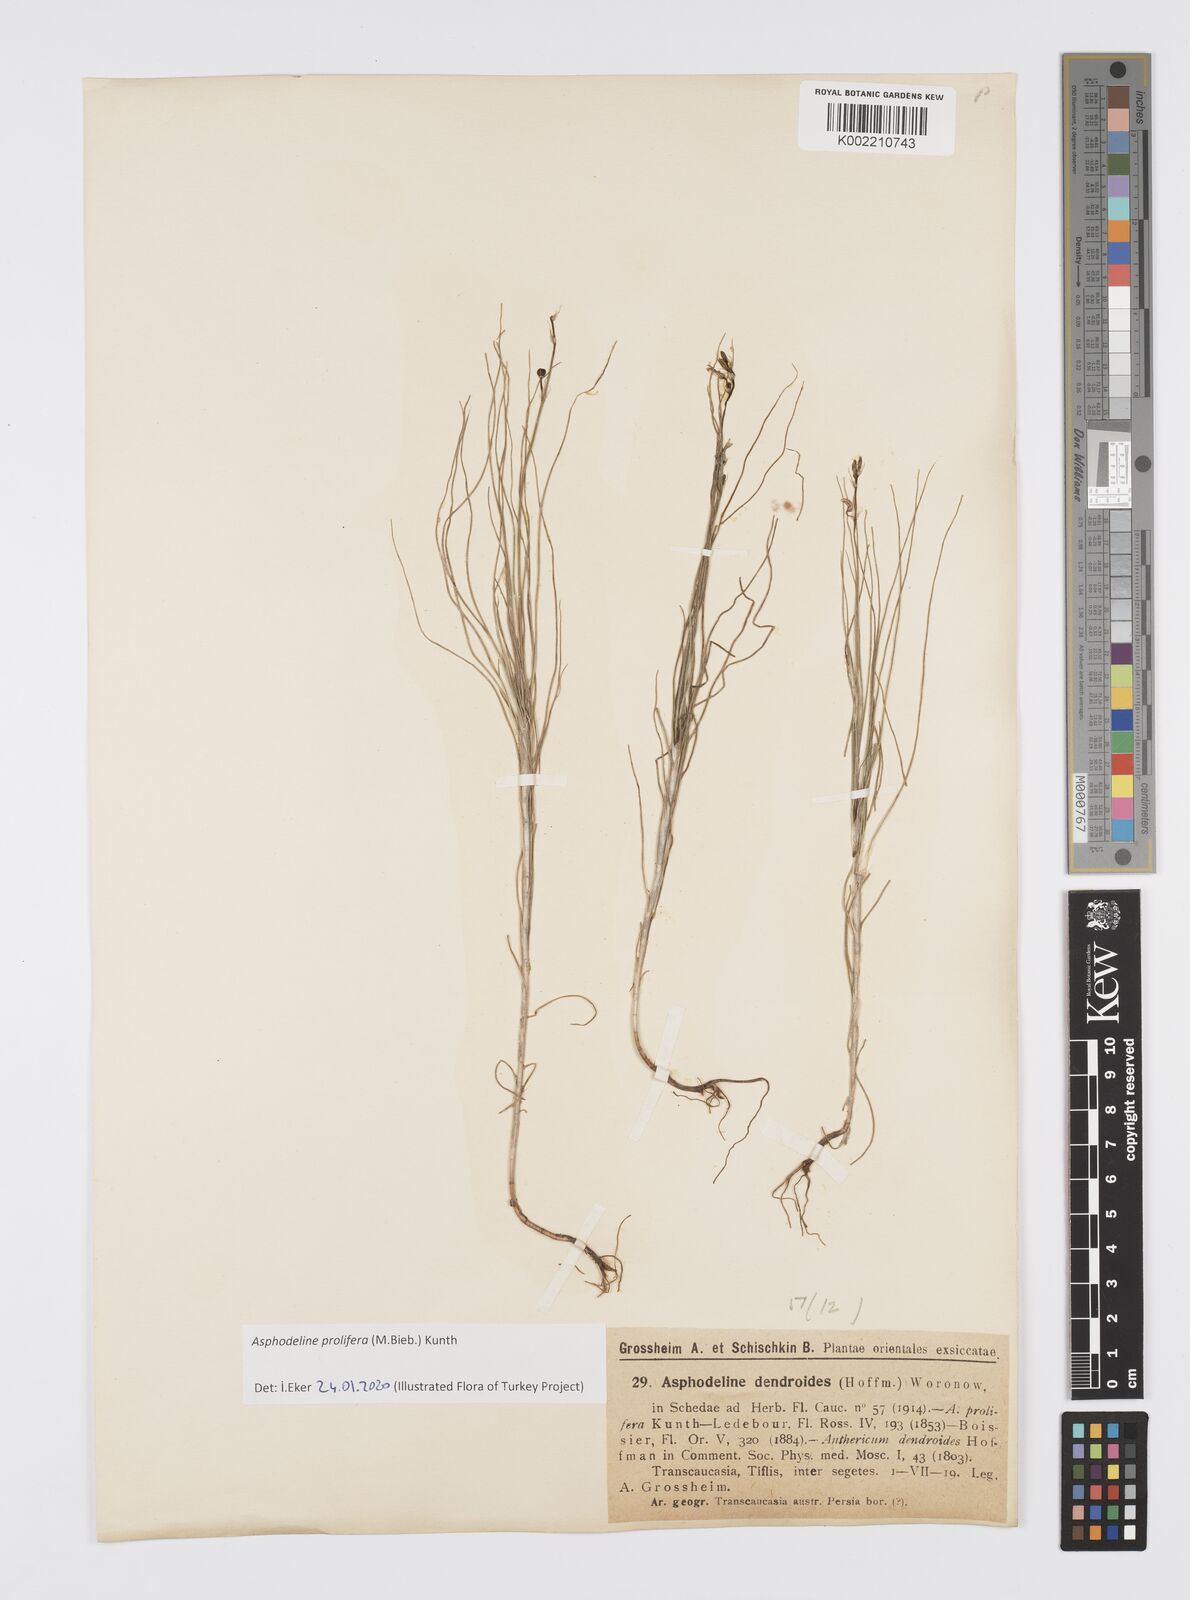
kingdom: Plantae
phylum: Tracheophyta
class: Liliopsida
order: Asparagales
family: Asphodelaceae
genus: Asphodeline
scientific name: Asphodeline prolifera
